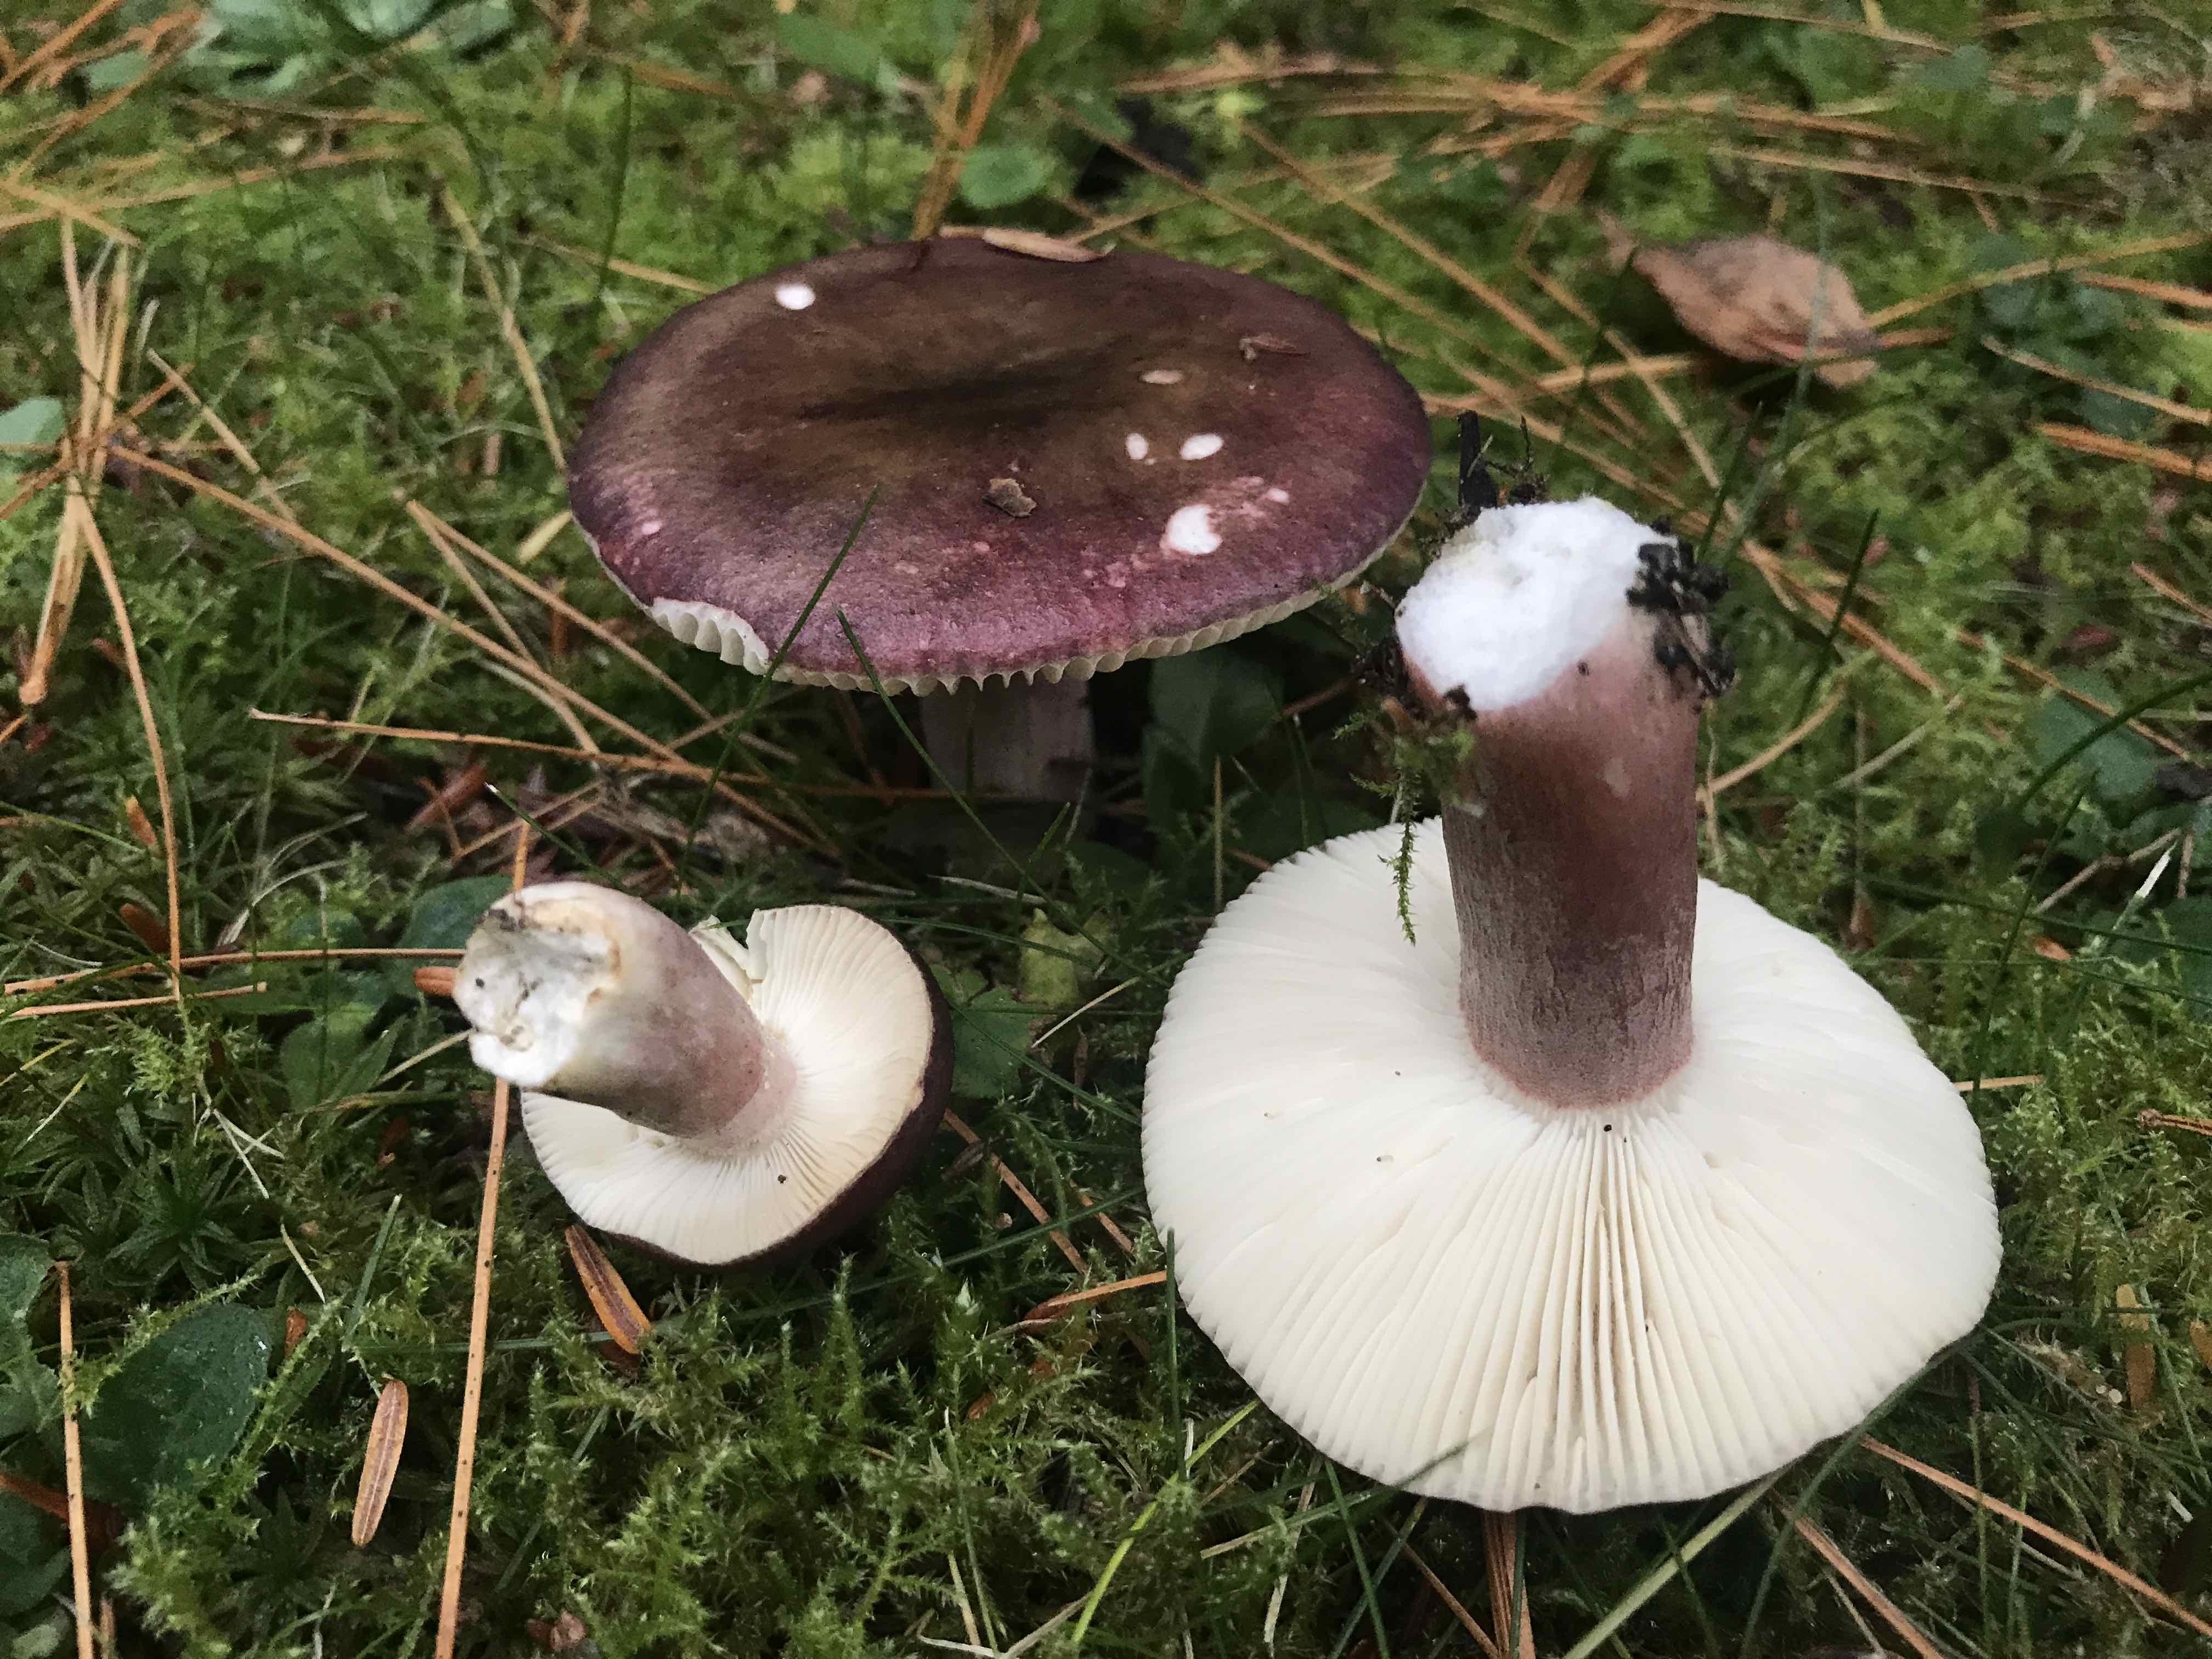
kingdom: Fungi
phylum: Basidiomycota
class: Agaricomycetes
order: Russulales
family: Russulaceae
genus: Russula
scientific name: Russula queletii
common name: Quélets skørhat
